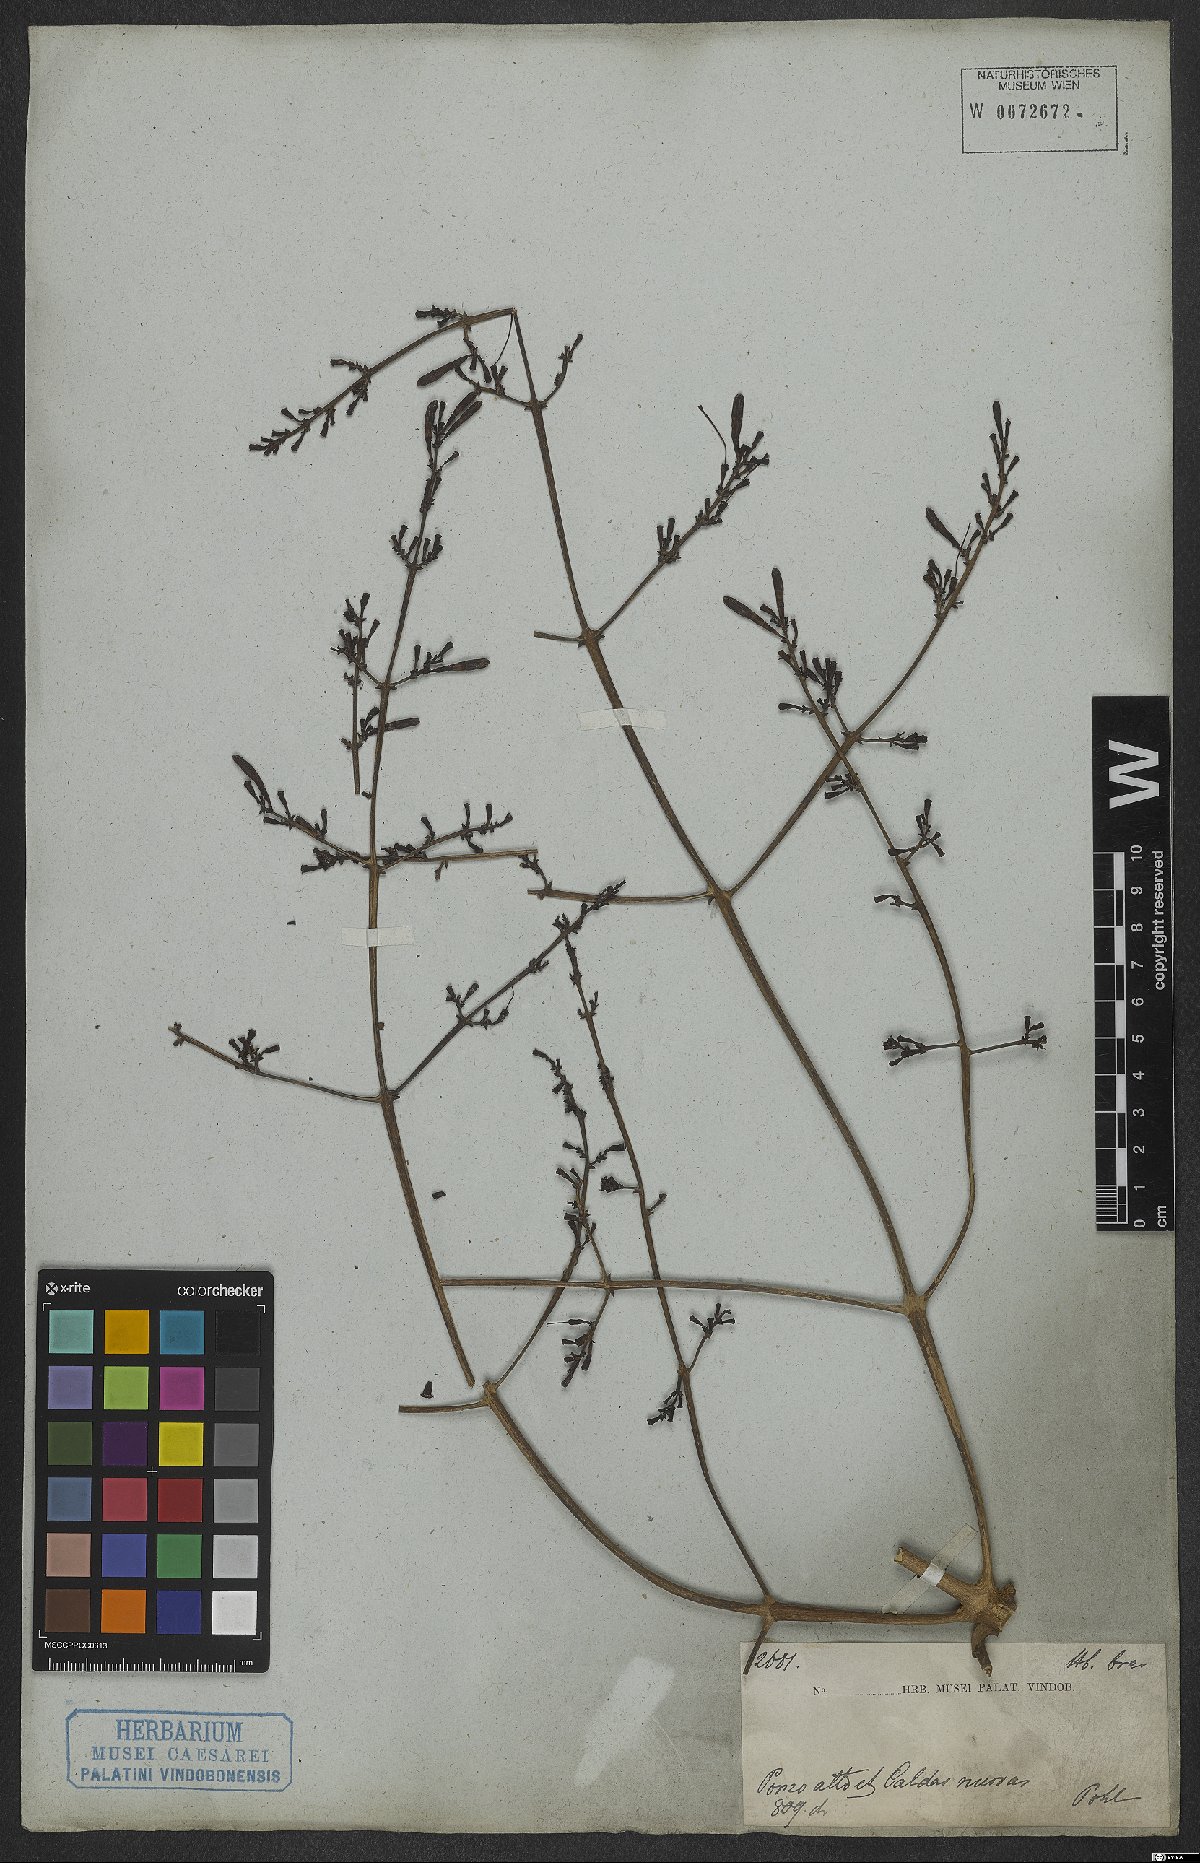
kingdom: Plantae
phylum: Tracheophyta
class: Magnoliopsida
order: Gentianales
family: Rubiaceae
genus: Rustia
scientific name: Rustia formosa
